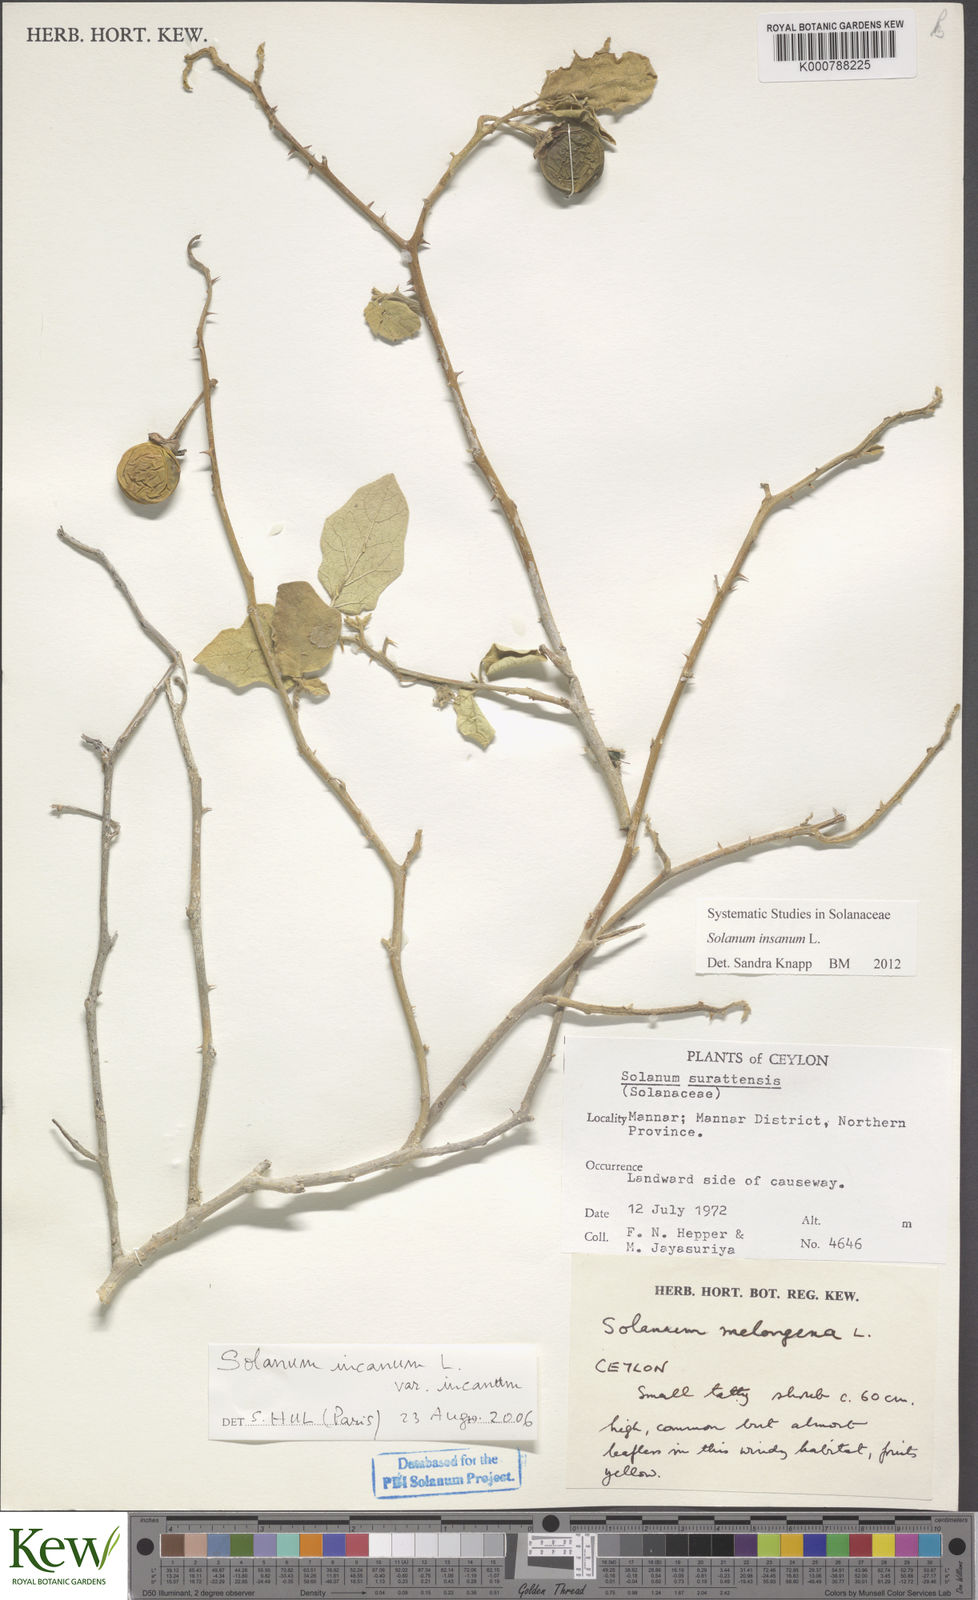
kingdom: Plantae
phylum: Tracheophyta
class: Magnoliopsida
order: Solanales
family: Solanaceae
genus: Solanum
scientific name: Solanum insanum
